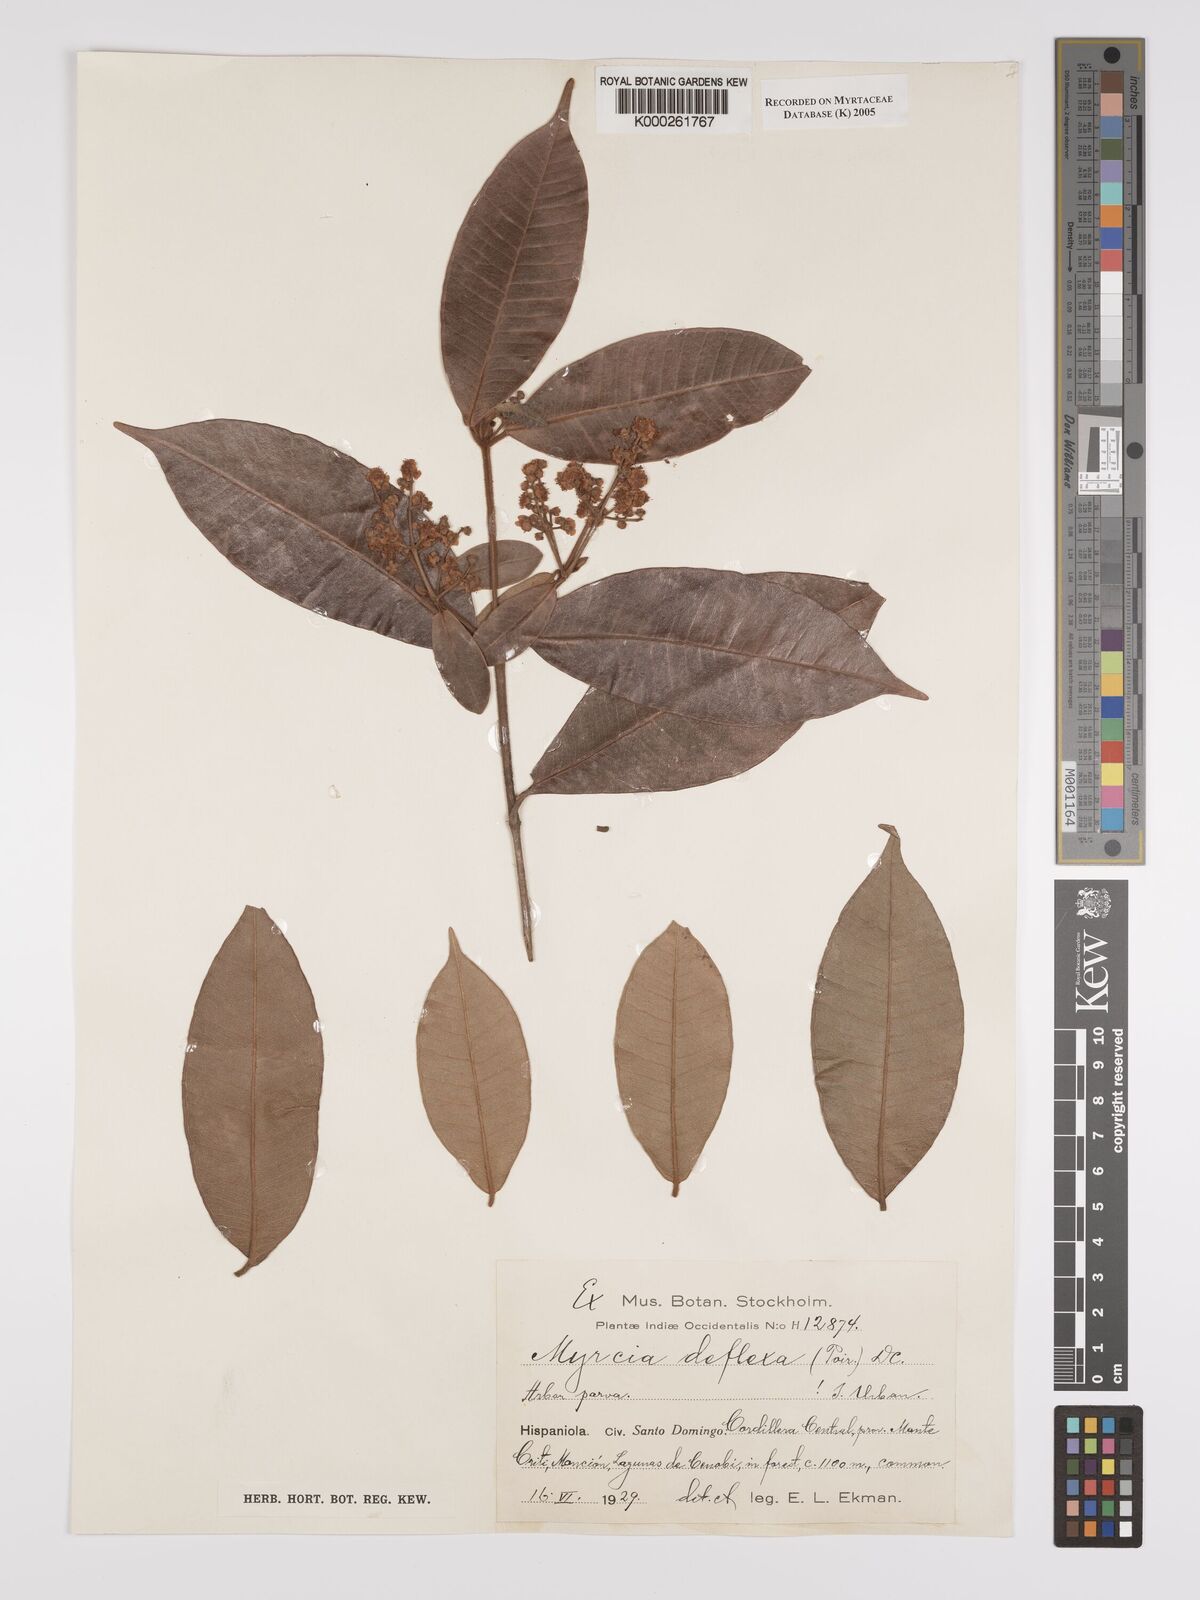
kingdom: Plantae
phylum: Tracheophyta
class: Magnoliopsida
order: Myrtales
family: Myrtaceae
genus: Myrcia
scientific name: Myrcia deflexa
